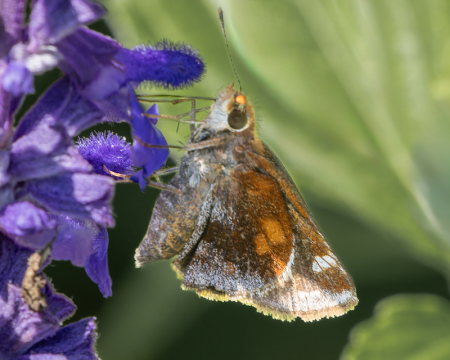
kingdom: Animalia
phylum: Arthropoda
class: Insecta
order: Lepidoptera
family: Hesperiidae
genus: Lon
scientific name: Lon zabulon
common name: Zabulon Skipper
